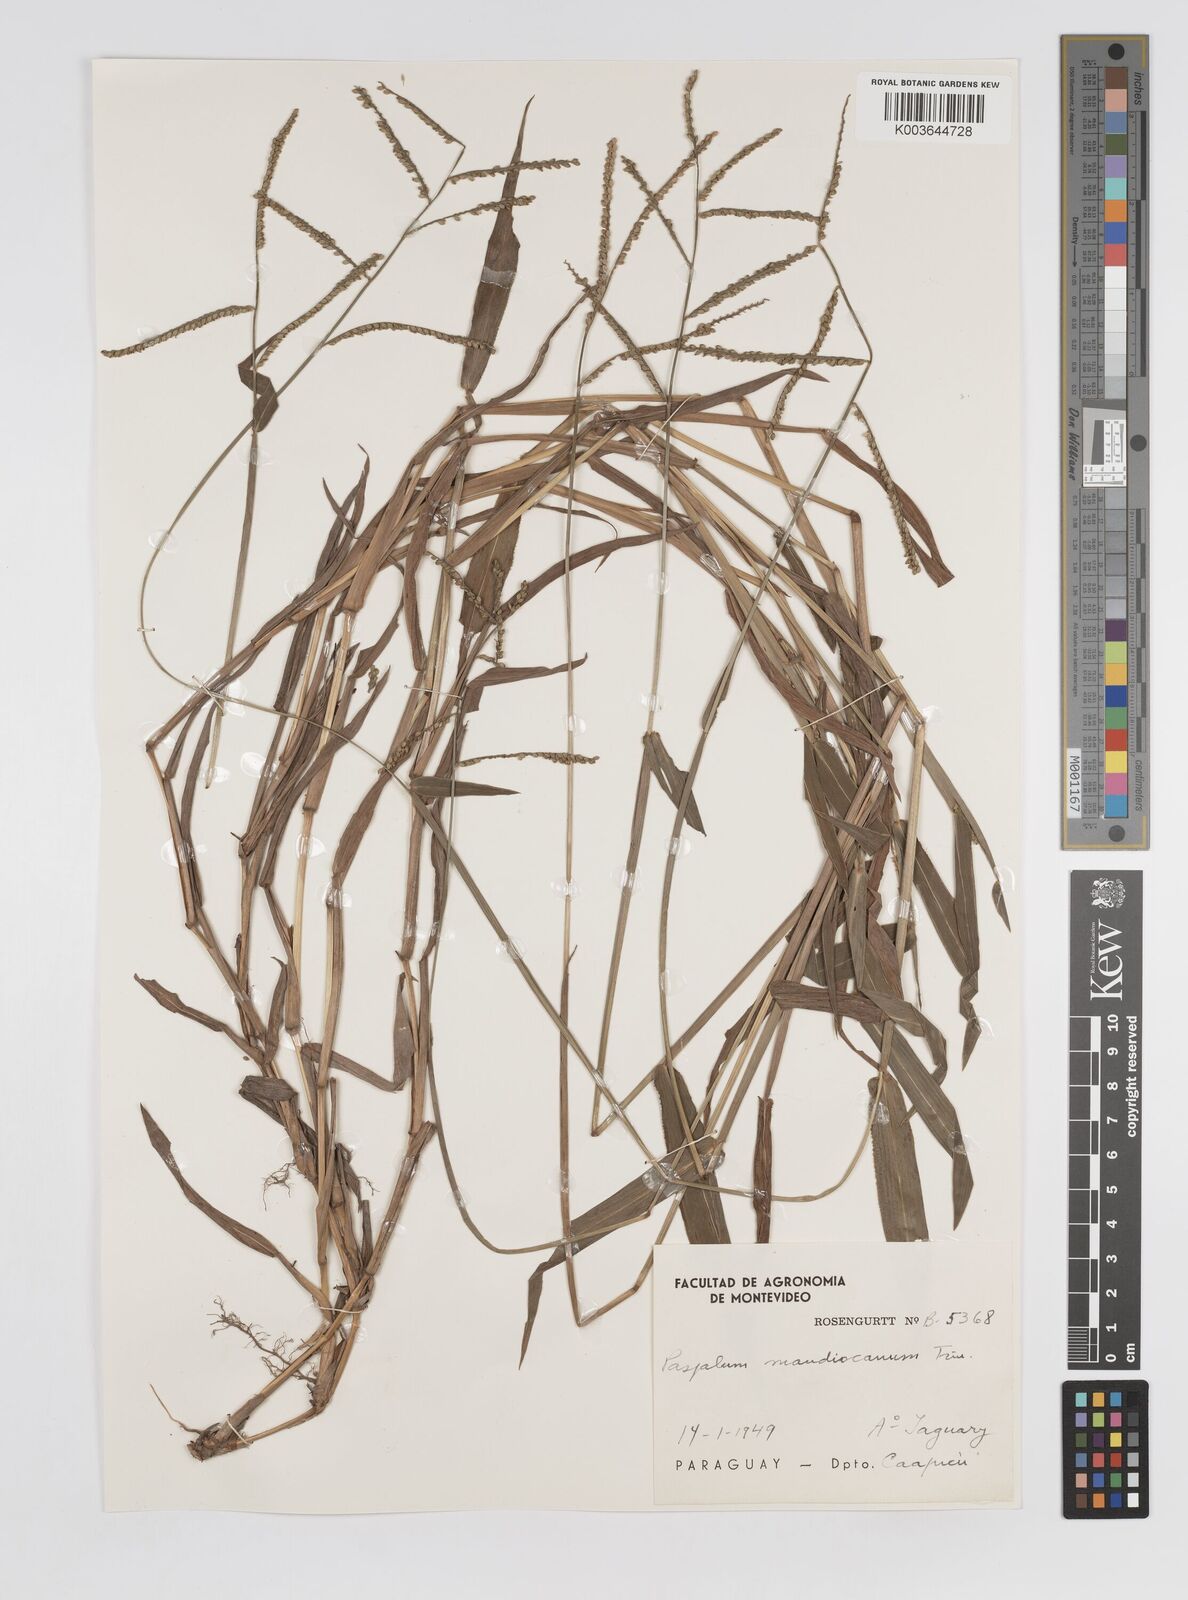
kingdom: Plantae
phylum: Tracheophyta
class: Liliopsida
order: Poales
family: Poaceae
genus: Paspalum
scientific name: Paspalum mandiocanum
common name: Paspalum
